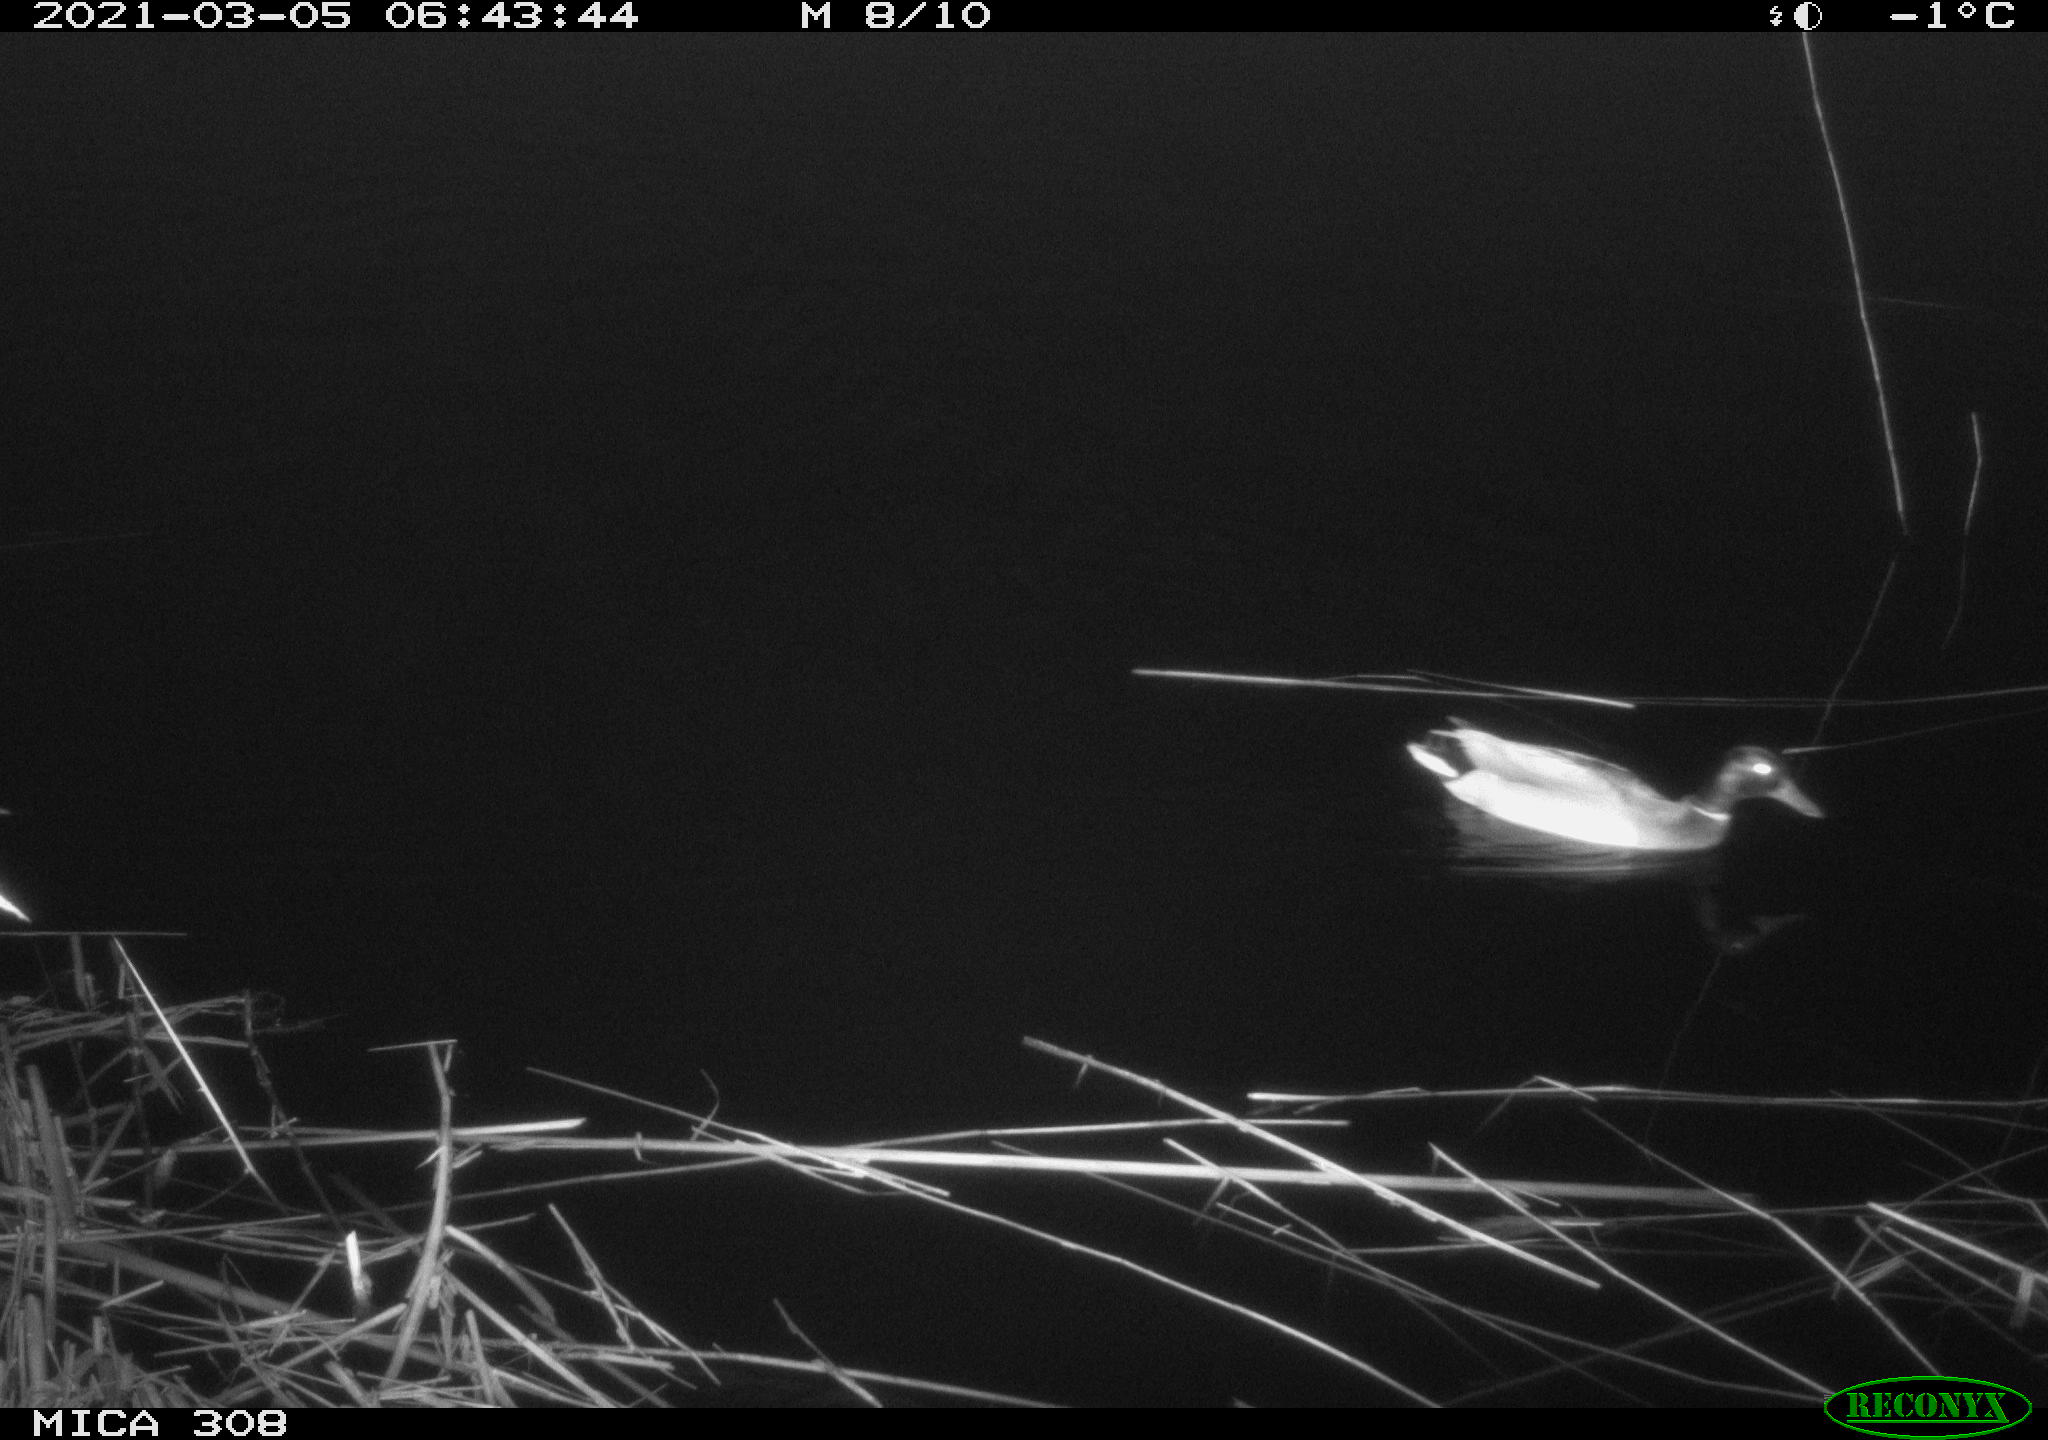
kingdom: Animalia
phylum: Chordata
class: Aves
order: Anseriformes
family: Anatidae
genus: Anas
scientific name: Anas platyrhynchos
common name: Mallard
